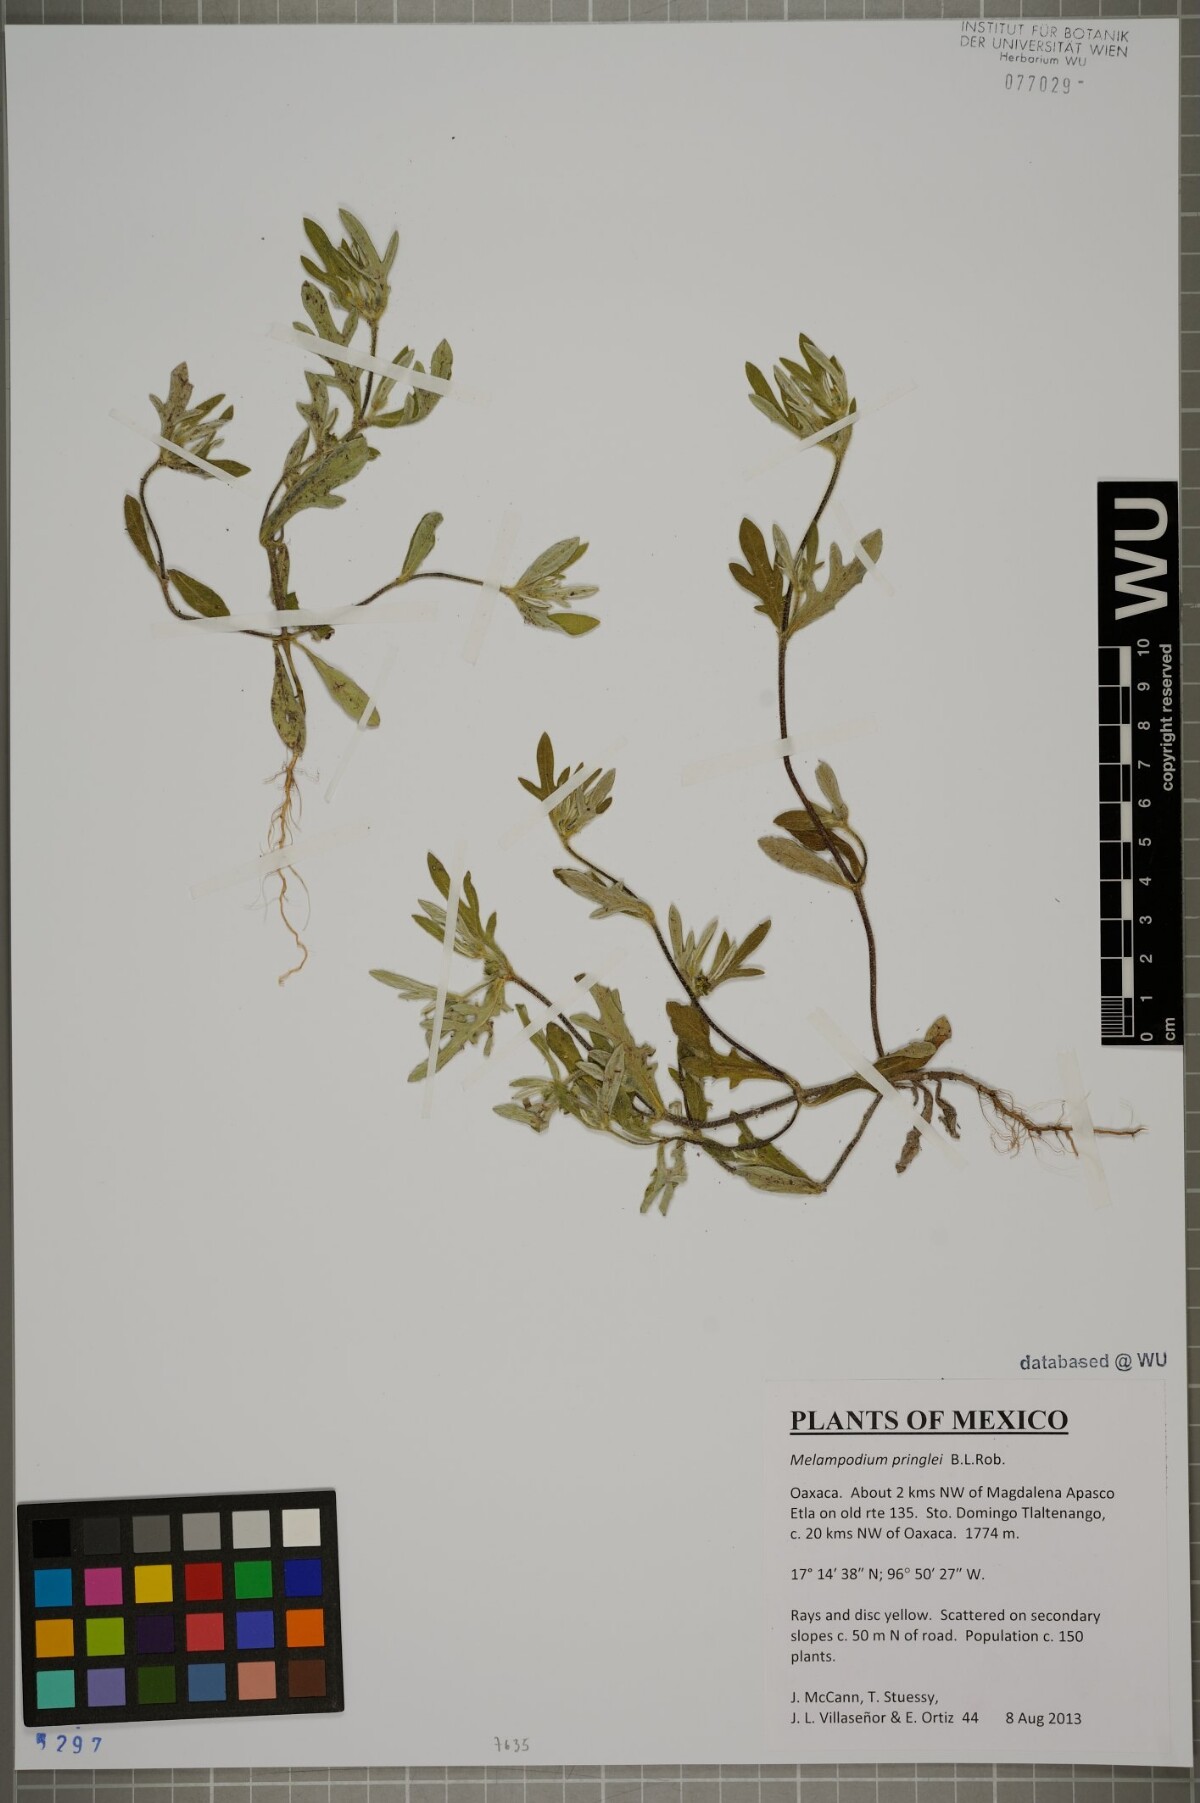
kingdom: Plantae
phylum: Tracheophyta
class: Magnoliopsida
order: Asterales
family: Asteraceae
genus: Melampodium
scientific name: Melampodium pringlei
